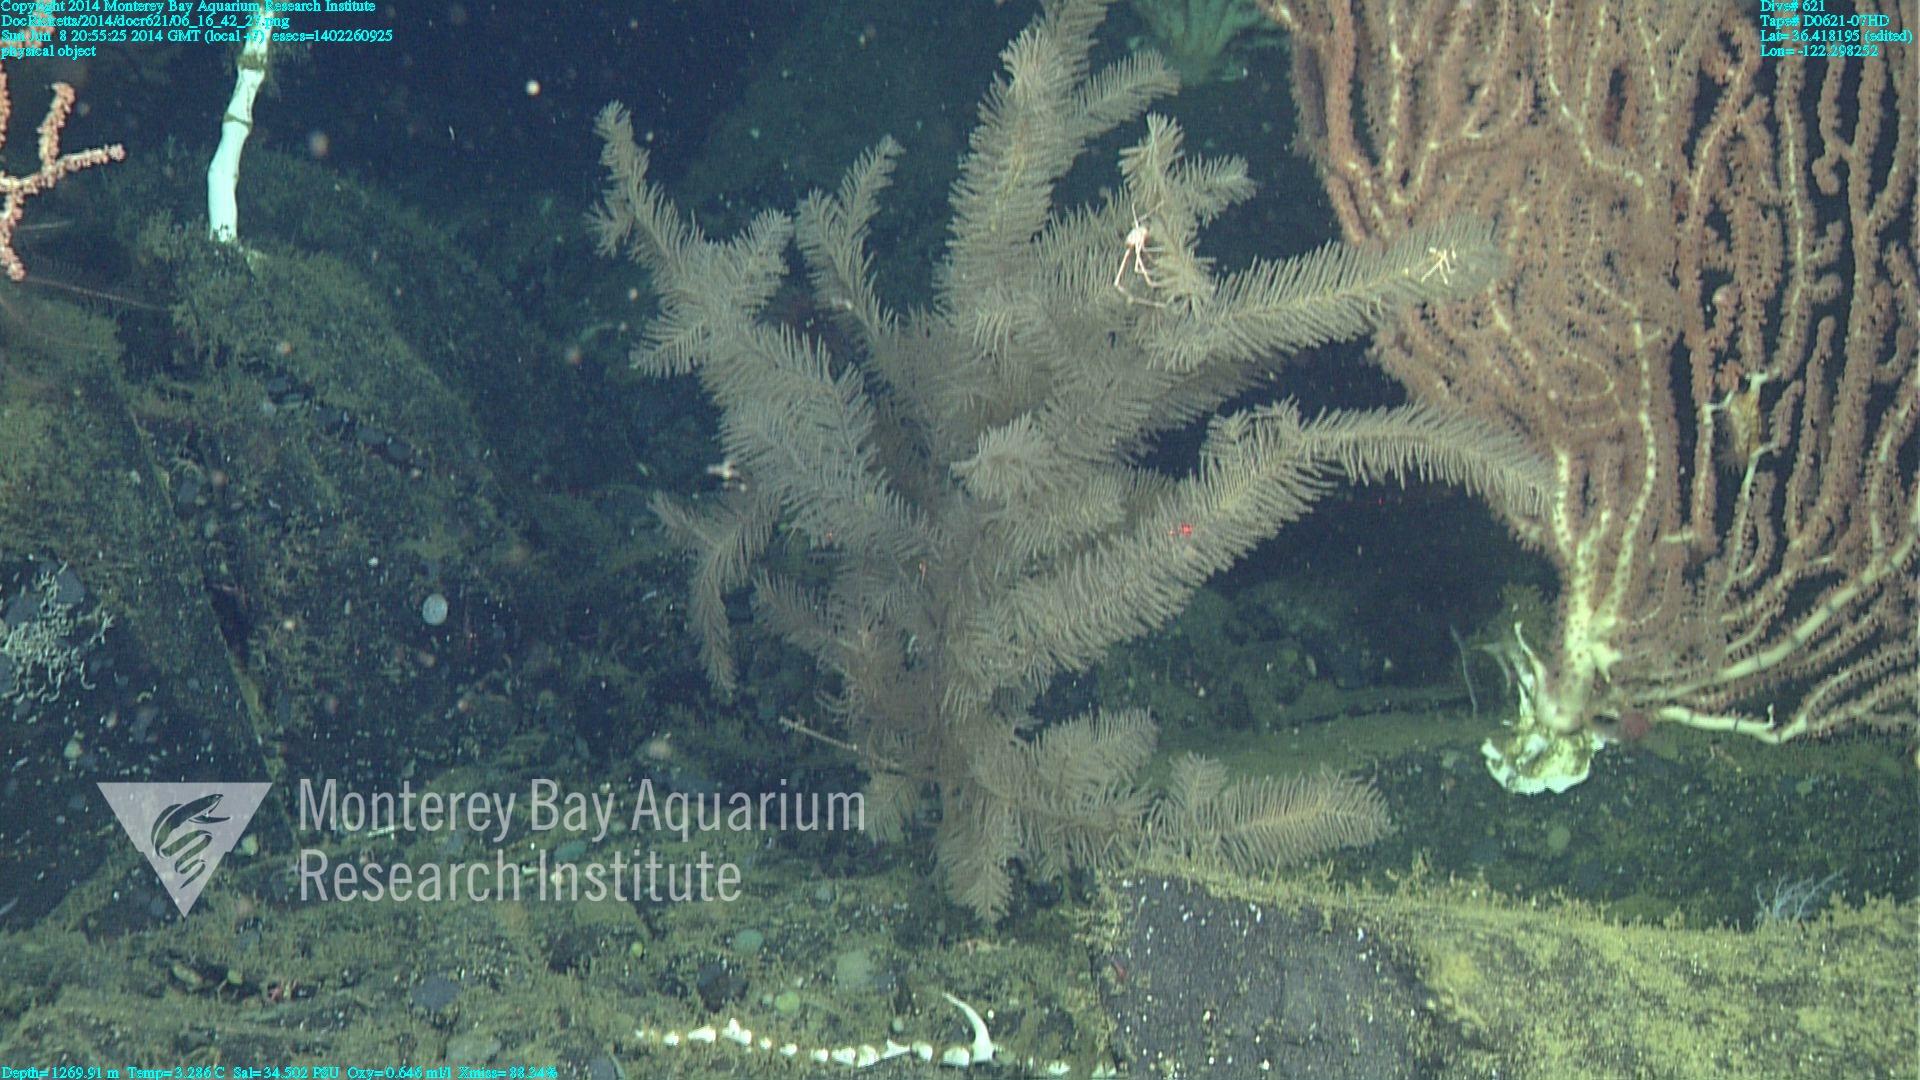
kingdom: Animalia
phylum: Cnidaria
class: Anthozoa
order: Antipatharia
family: Schizopathidae
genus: Lillipathes
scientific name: Lillipathes
